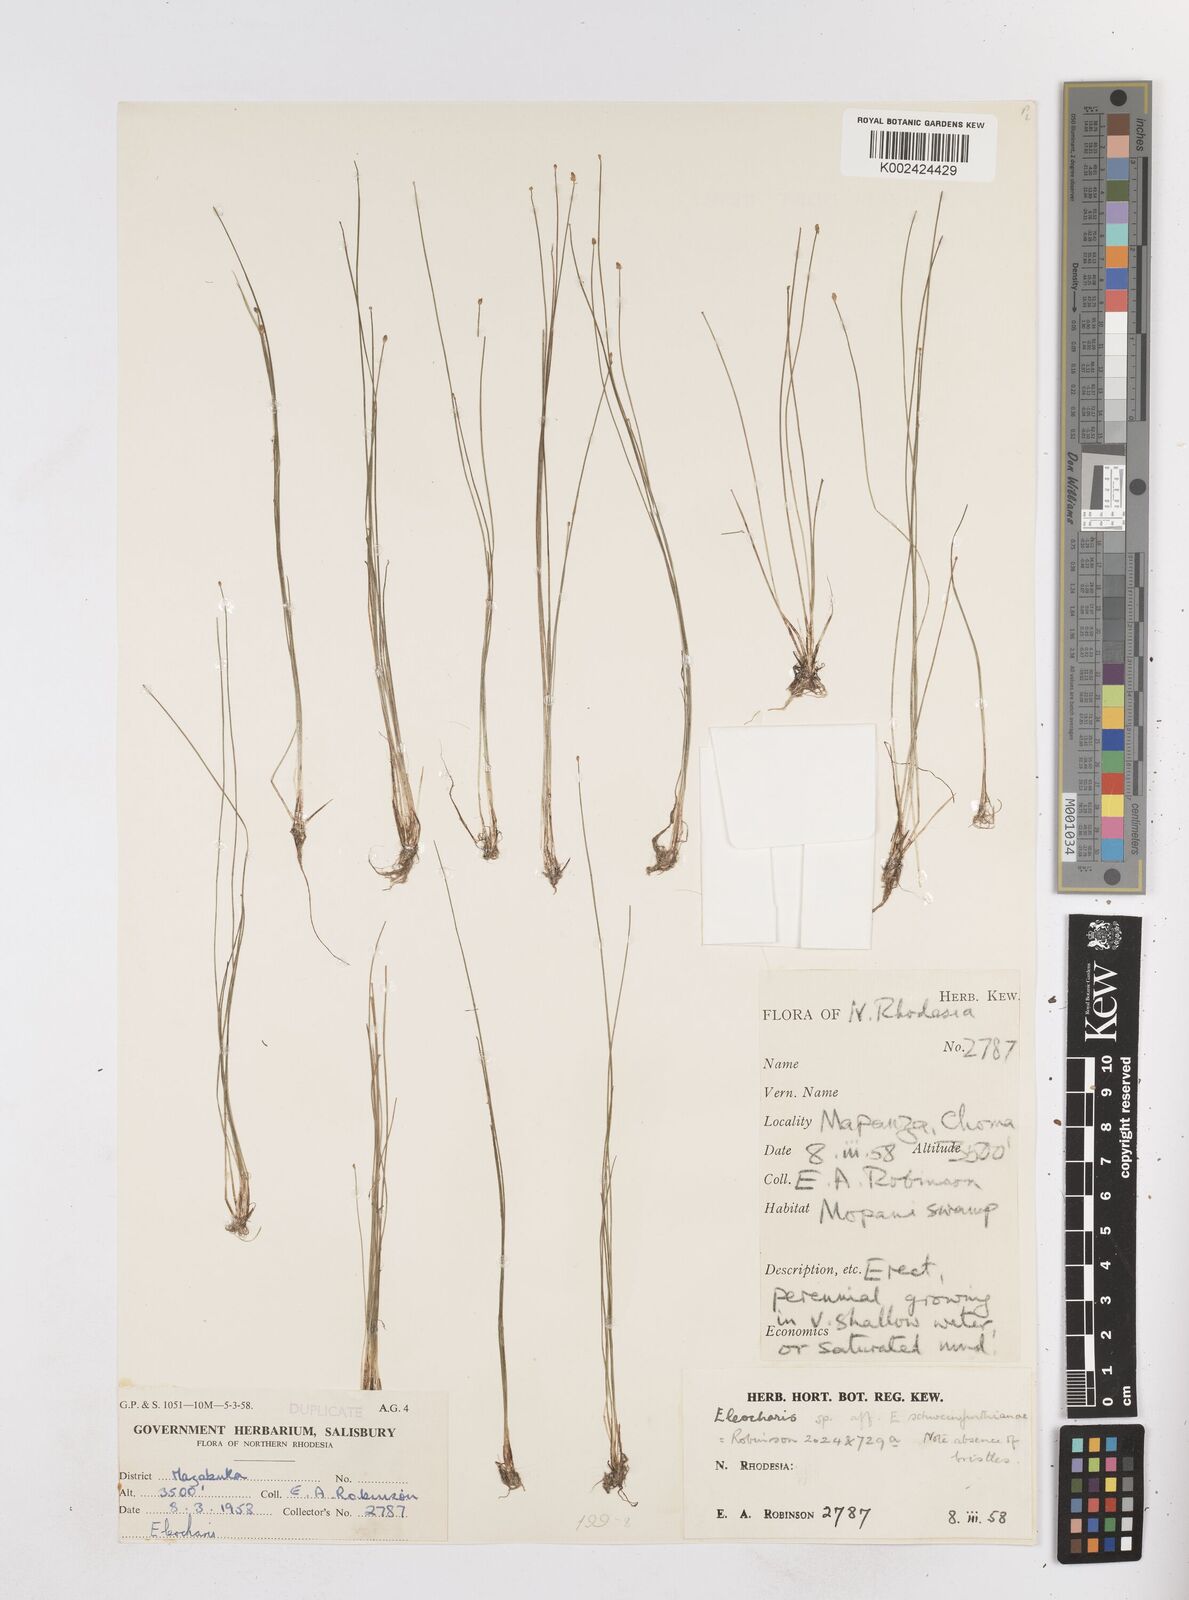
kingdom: Plantae
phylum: Tracheophyta
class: Liliopsida
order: Poales
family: Cyperaceae
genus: Eleocharis
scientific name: Eleocharis setifolia
